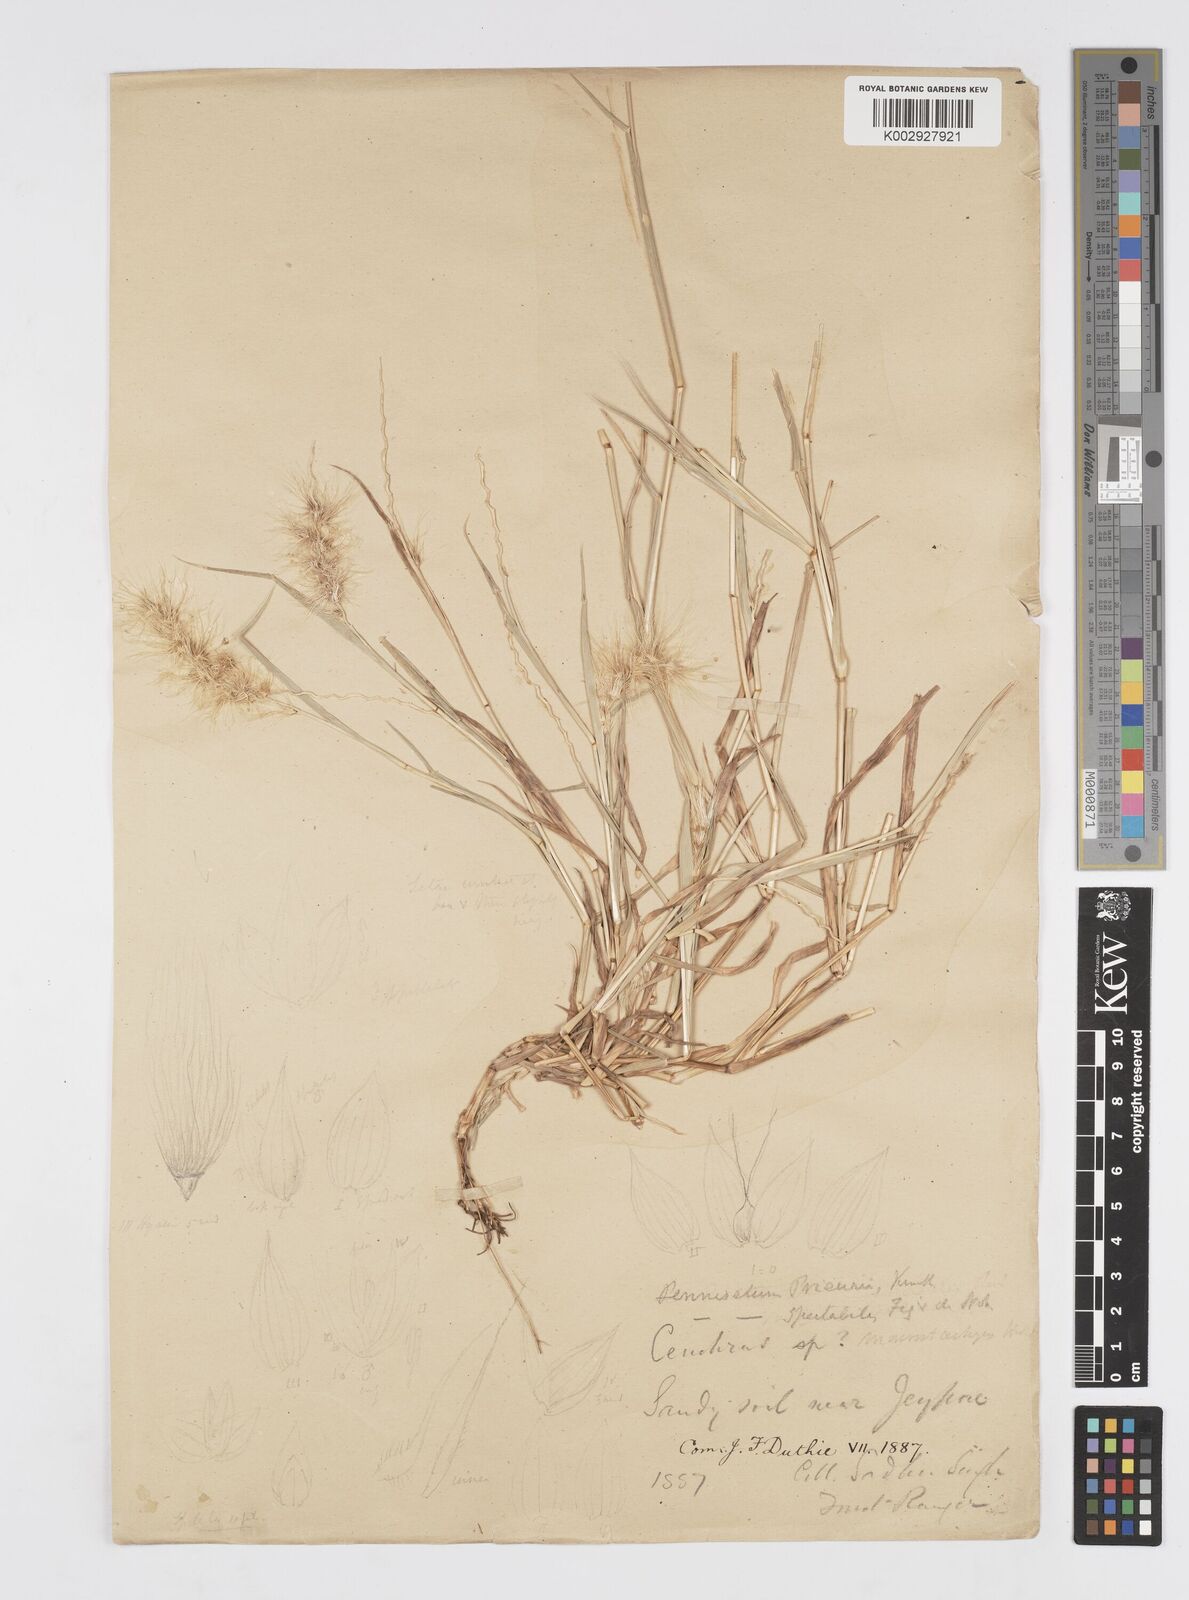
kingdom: Plantae
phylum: Tracheophyta
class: Liliopsida
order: Poales
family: Poaceae
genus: Cenchrus
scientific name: Cenchrus prieurii
